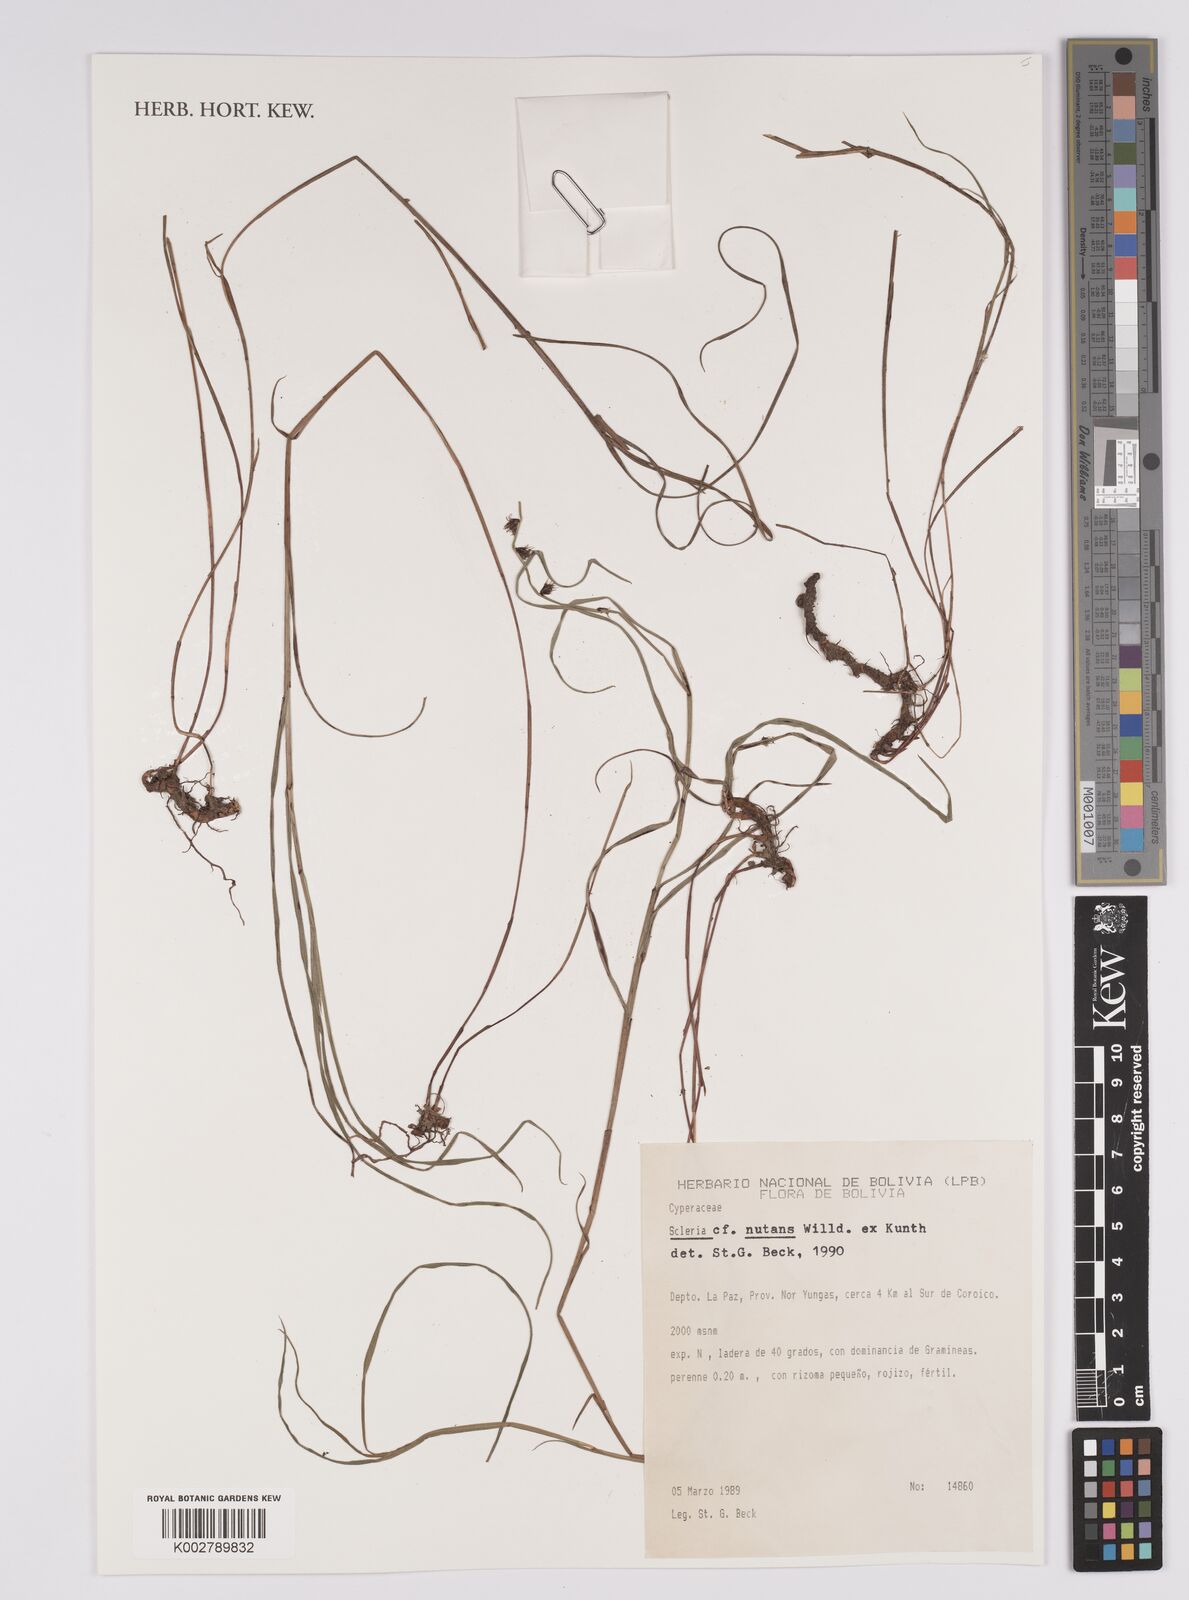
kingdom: Plantae
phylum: Tracheophyta
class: Liliopsida
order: Poales
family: Cyperaceae
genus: Scleria
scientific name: Scleria
